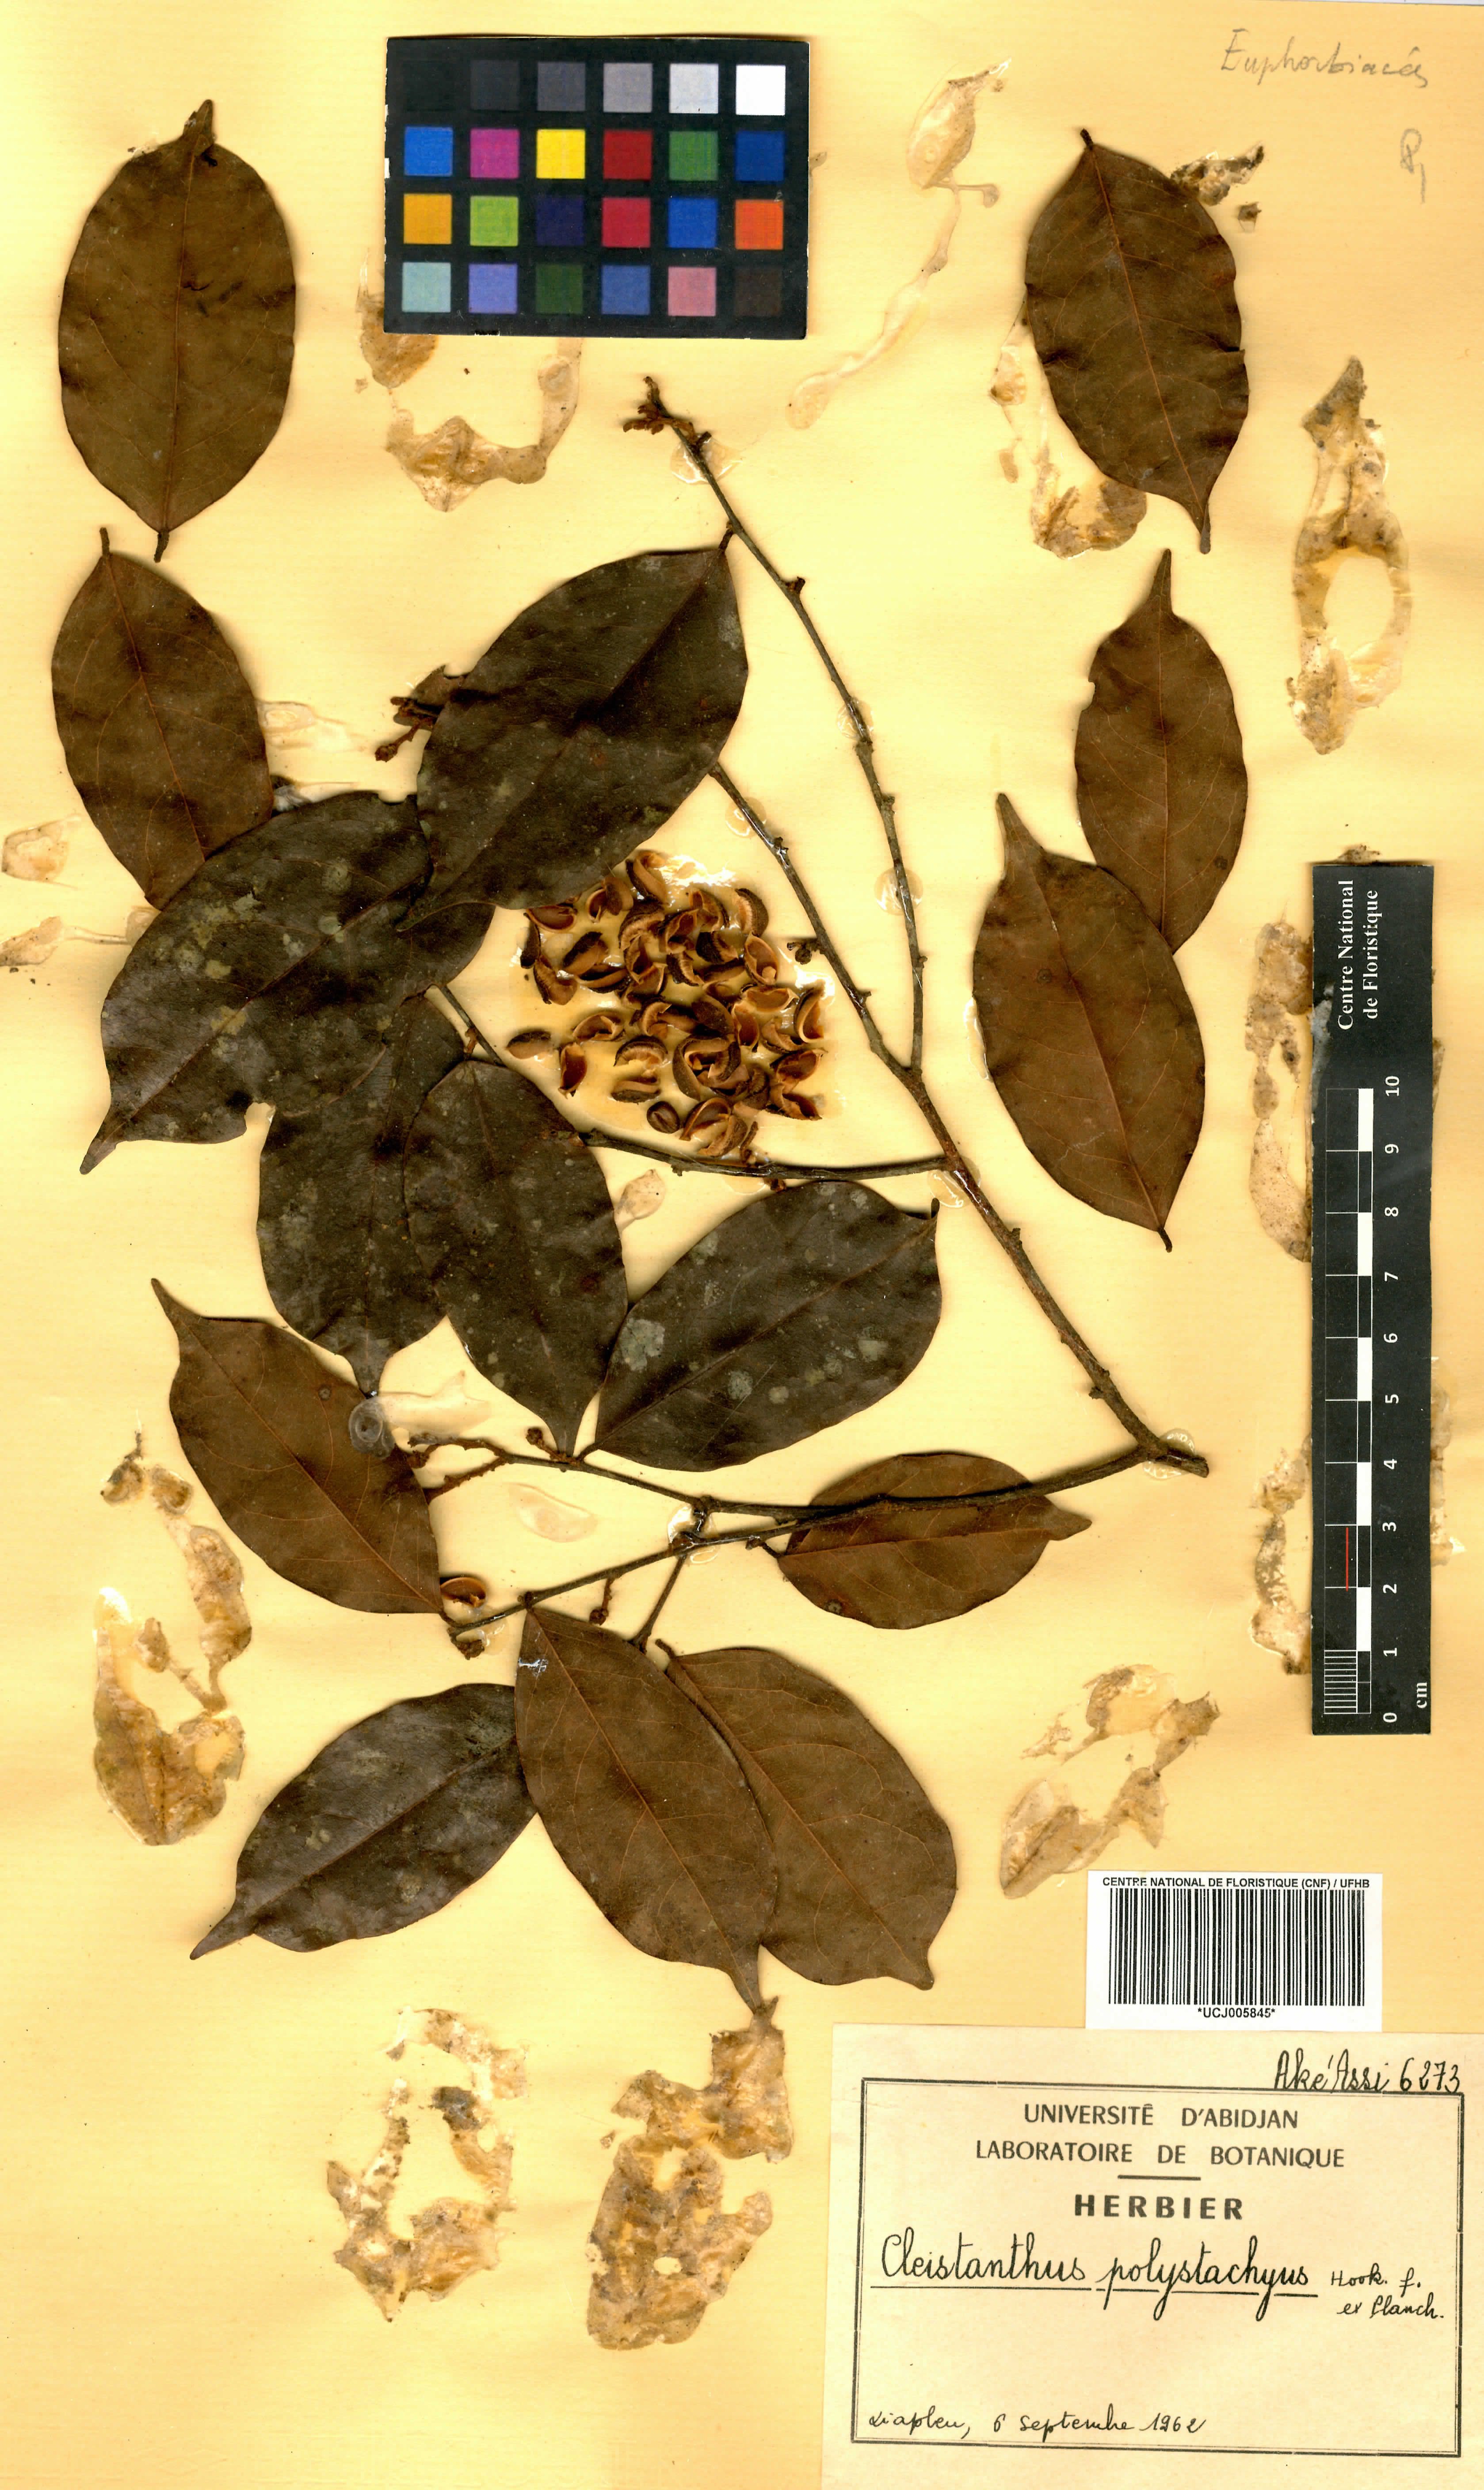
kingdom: Plantae
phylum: Tracheophyta
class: Magnoliopsida
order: Malpighiales
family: Phyllanthaceae
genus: Cleistanthus
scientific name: Cleistanthus polystachyus
